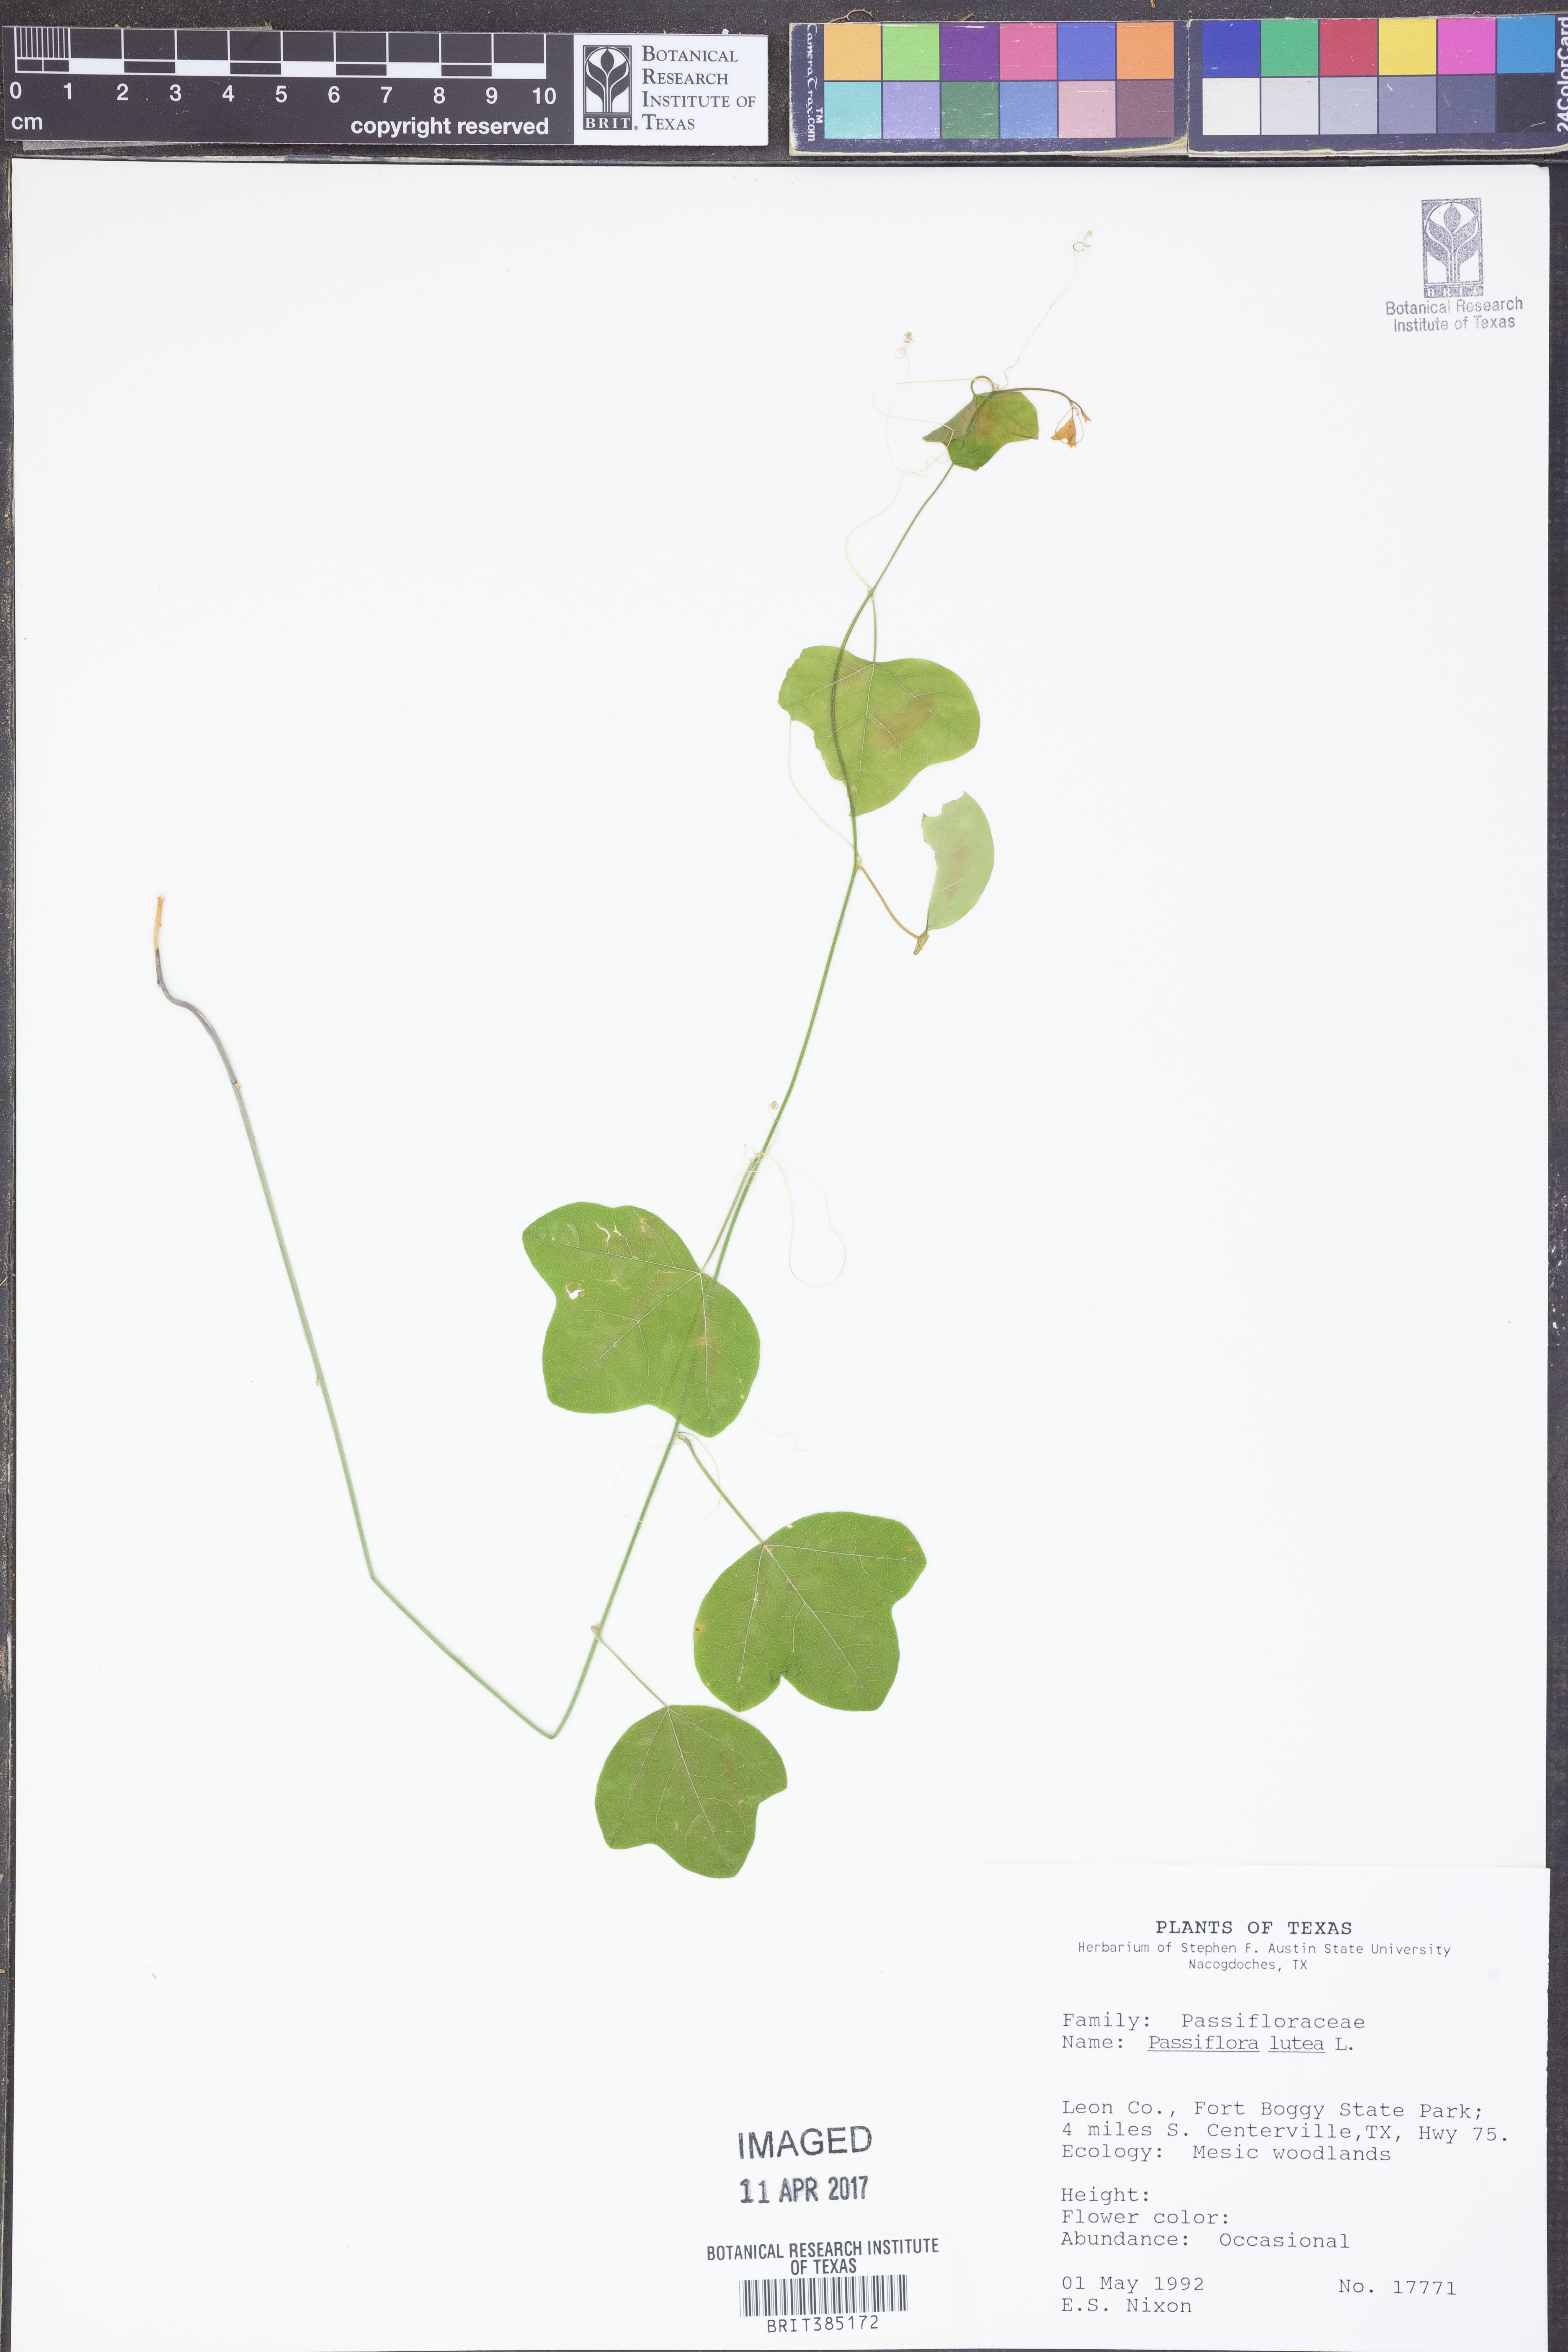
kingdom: Plantae
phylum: Tracheophyta
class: Magnoliopsida
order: Malpighiales
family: Passifloraceae
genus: Passiflora
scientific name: Passiflora lutea
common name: Yellow passionflower
